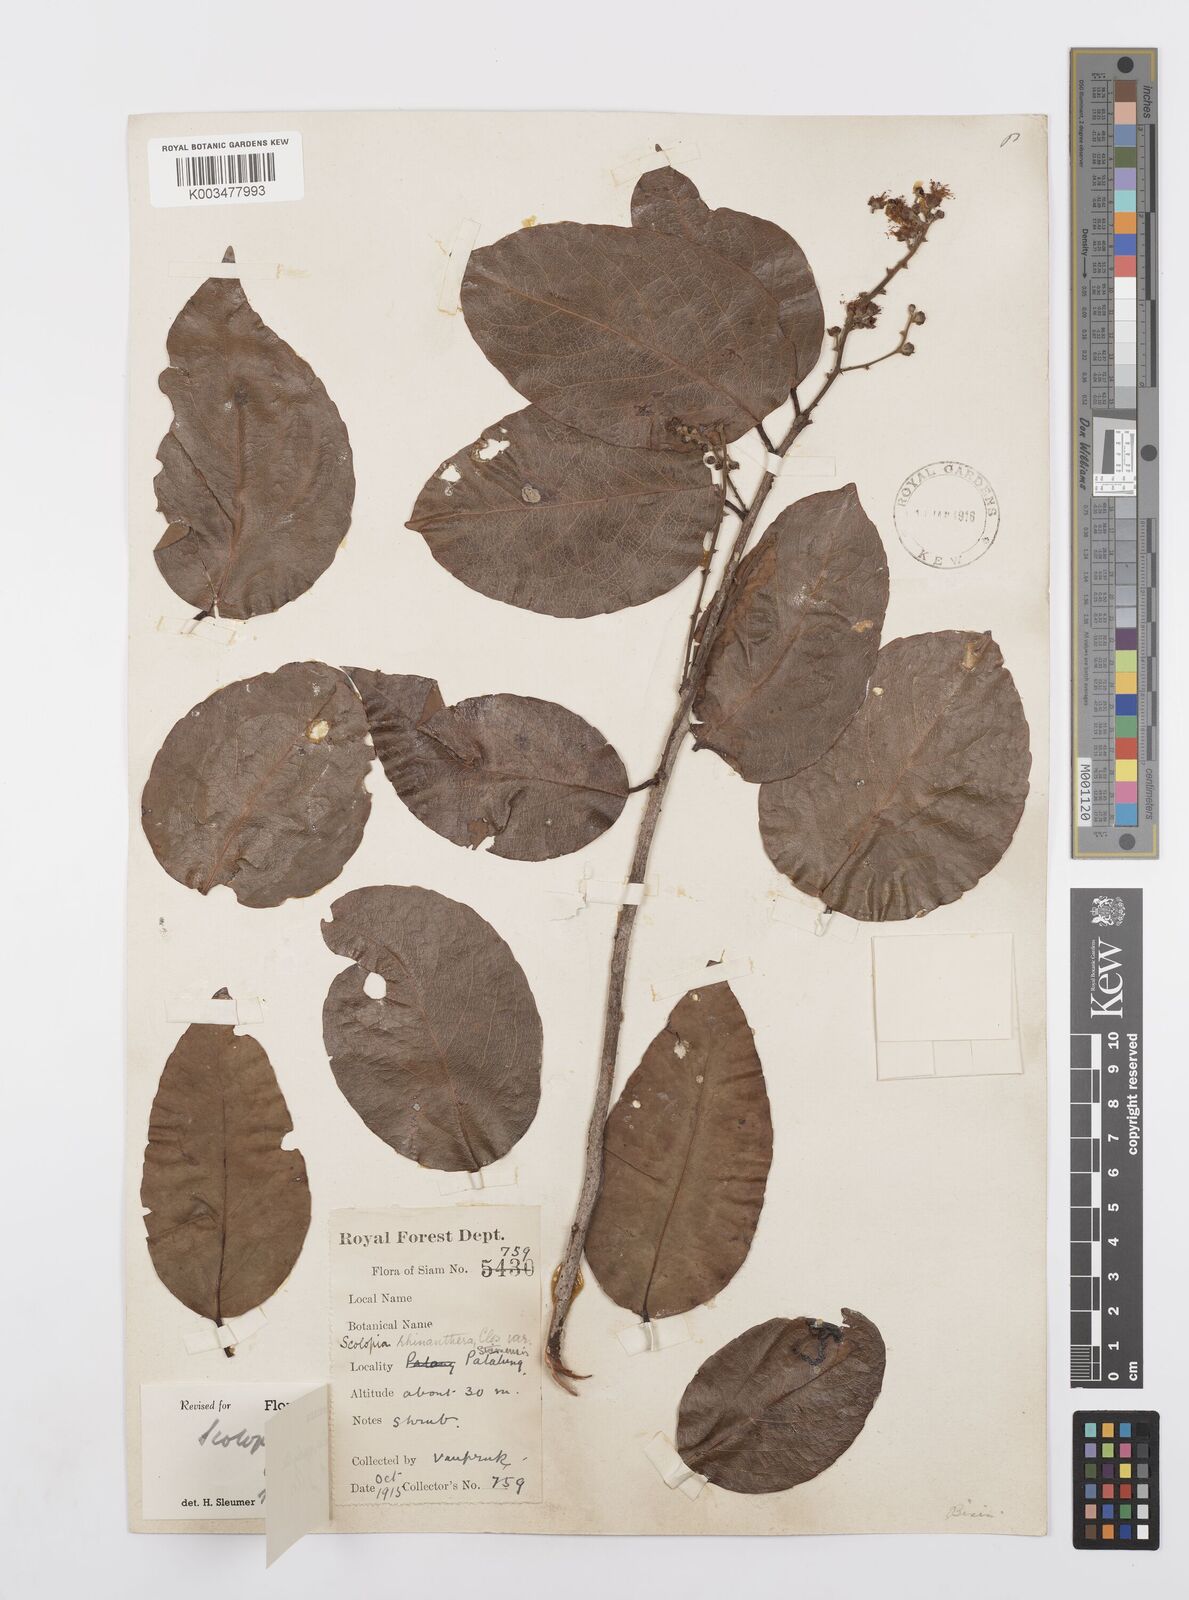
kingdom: Plantae
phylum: Tracheophyta
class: Magnoliopsida
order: Malpighiales
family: Salicaceae
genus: Scolopia
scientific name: Scolopia macrophylla
